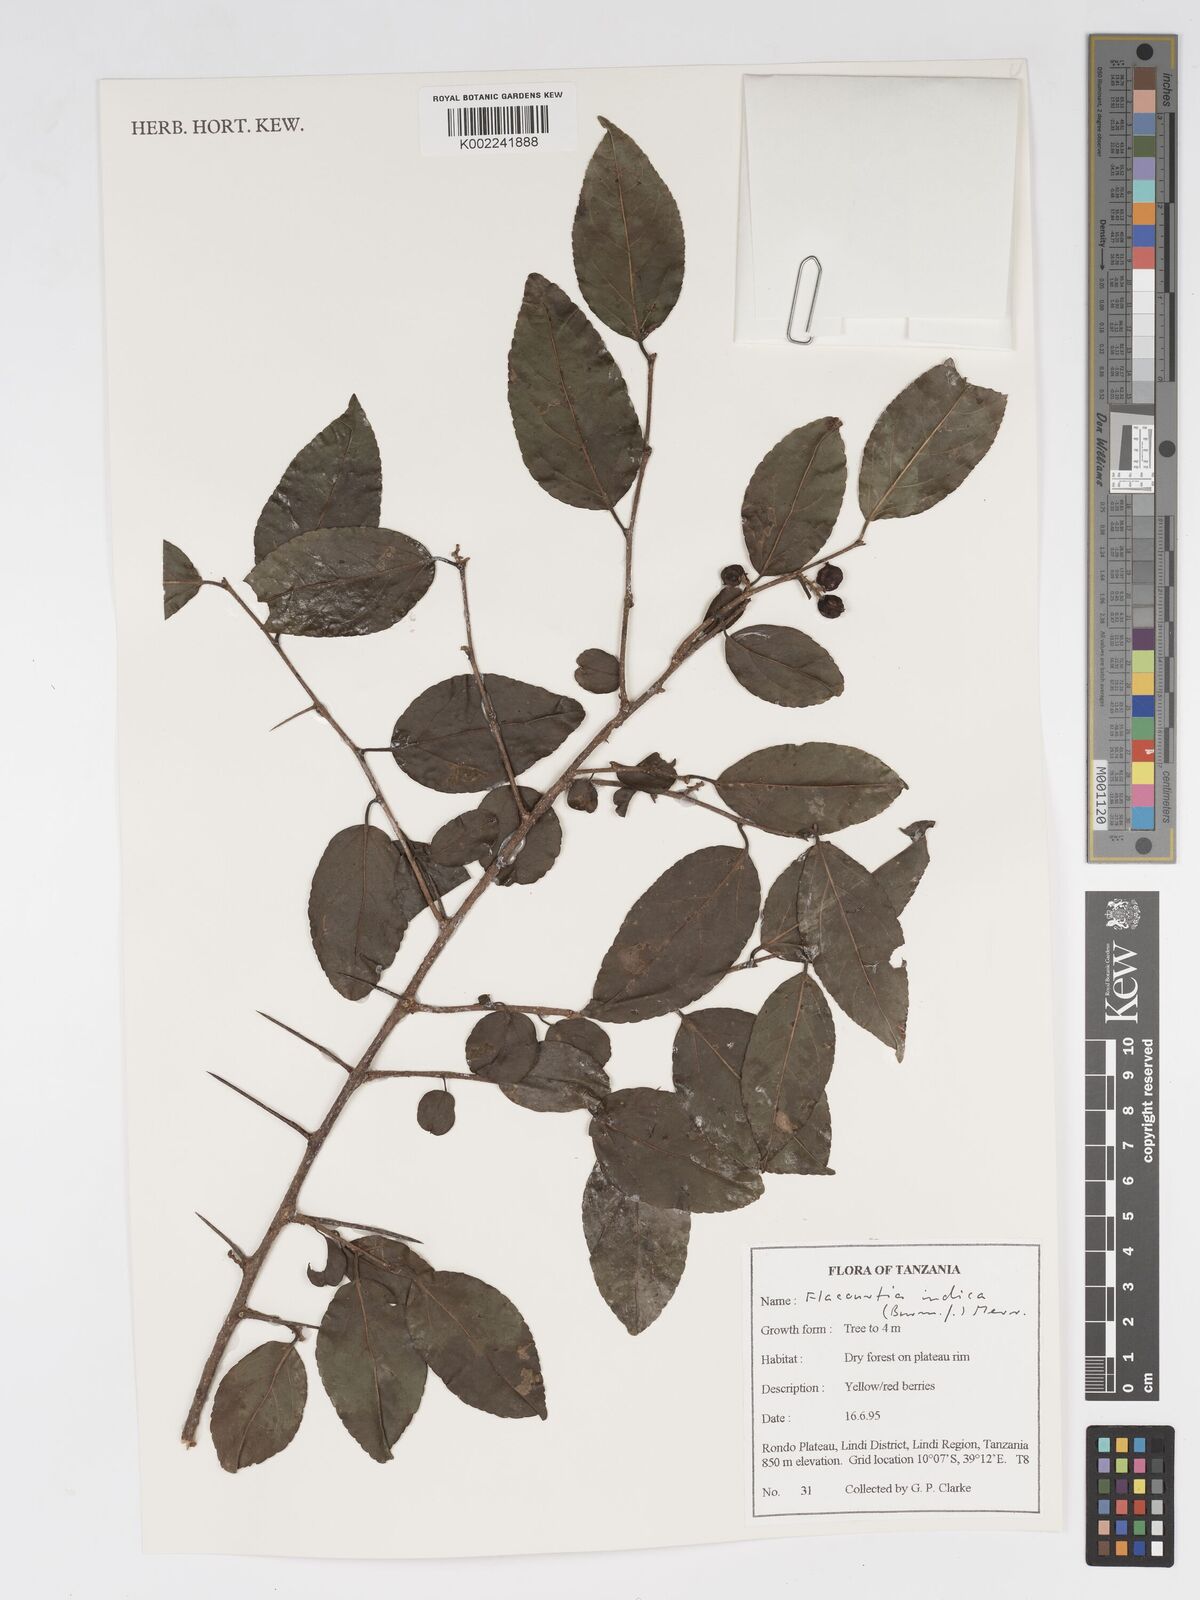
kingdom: Plantae
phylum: Tracheophyta
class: Magnoliopsida
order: Malpighiales
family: Salicaceae
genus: Flacourtia
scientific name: Flacourtia indica
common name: Governor's plum
